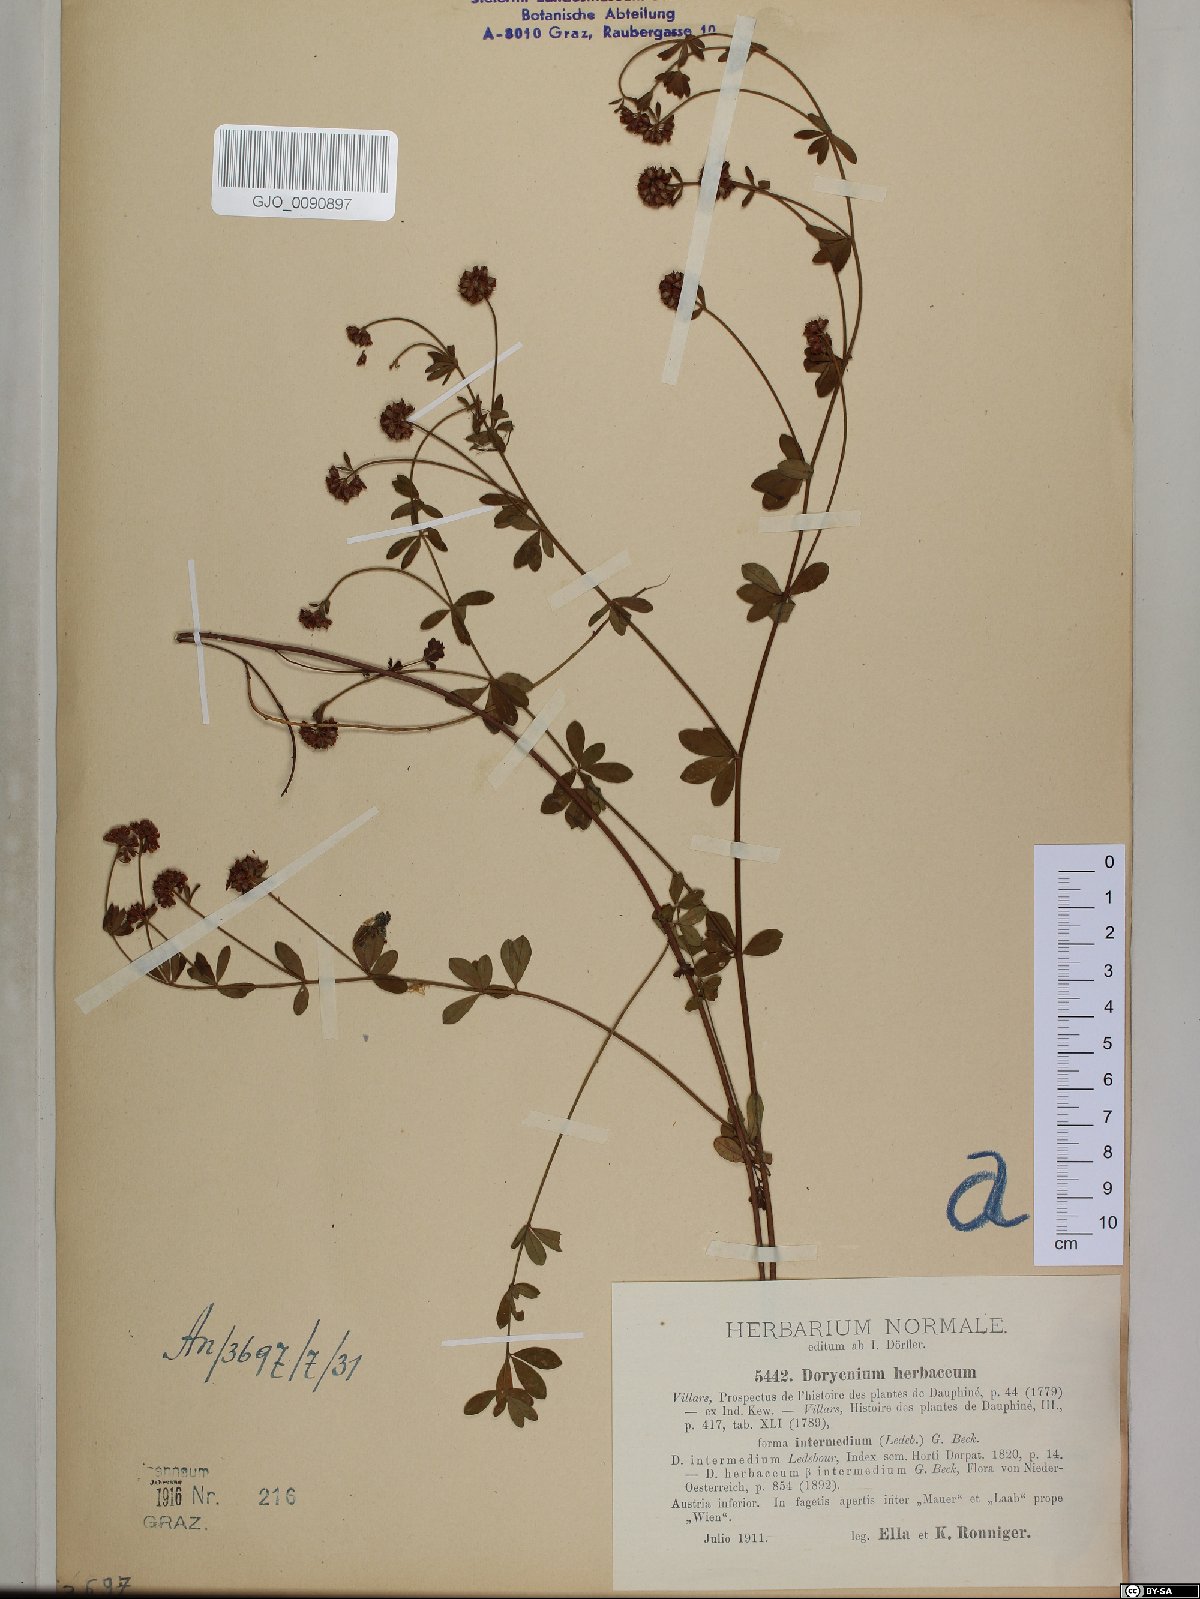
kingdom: Plantae
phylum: Tracheophyta
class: Magnoliopsida
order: Fabales
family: Fabaceae
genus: Lotus
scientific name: Lotus herbaceus
